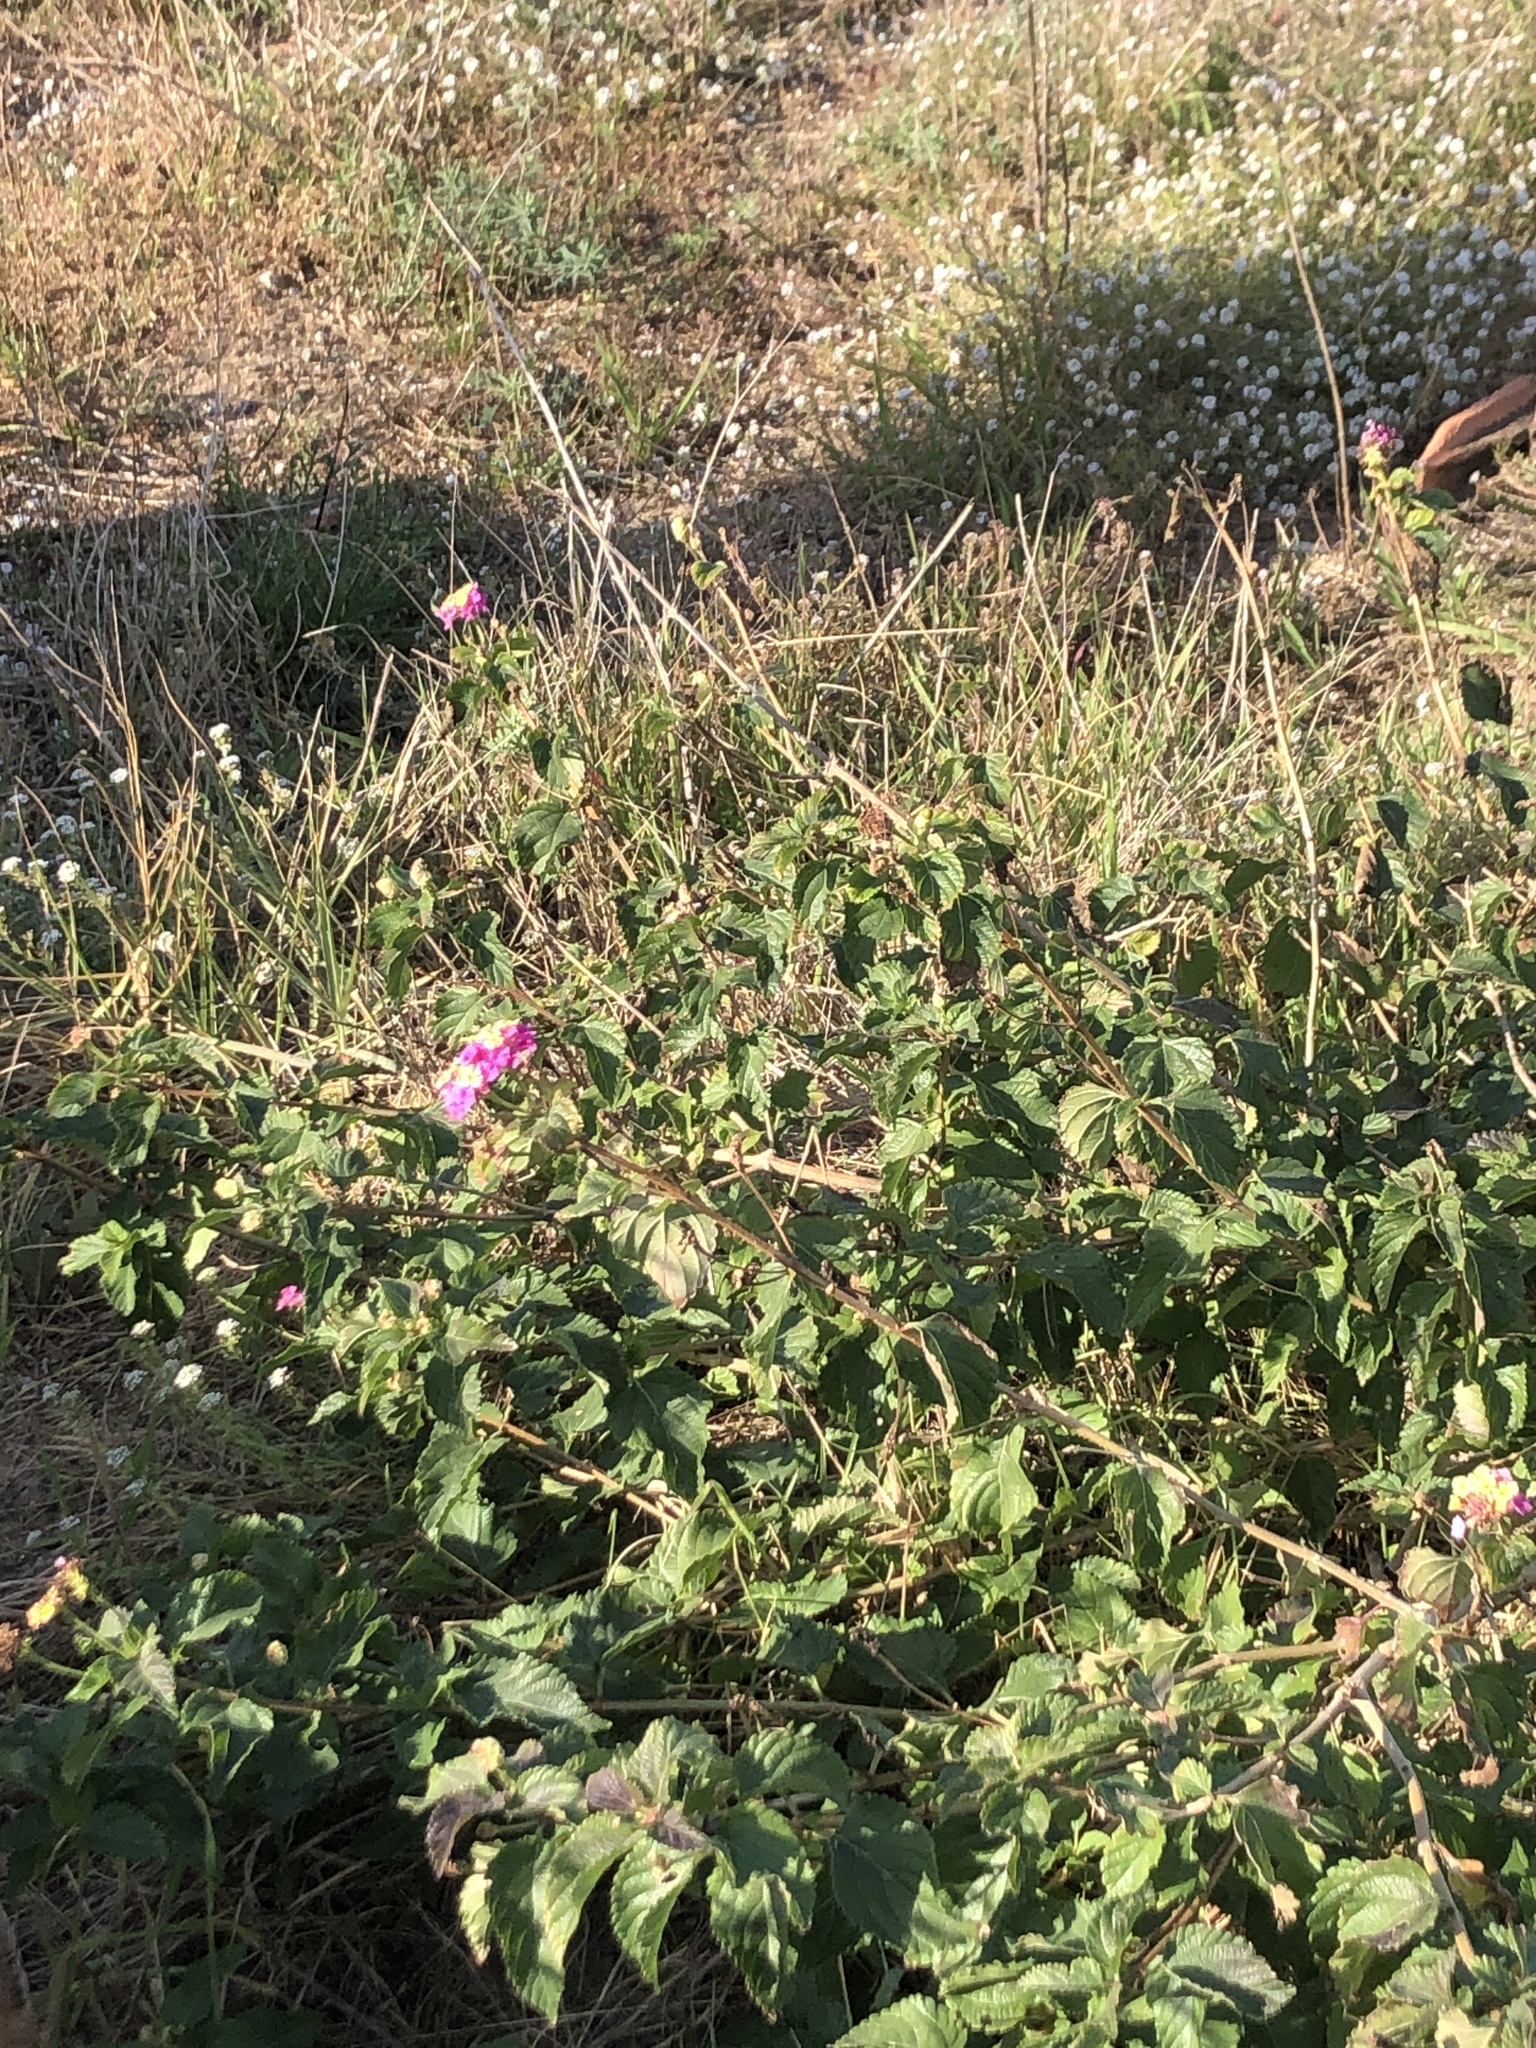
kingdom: Plantae
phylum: Tracheophyta
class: Magnoliopsida
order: Lamiales
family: Verbenaceae
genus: Lantana
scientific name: Lantana camara
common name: Lantana
